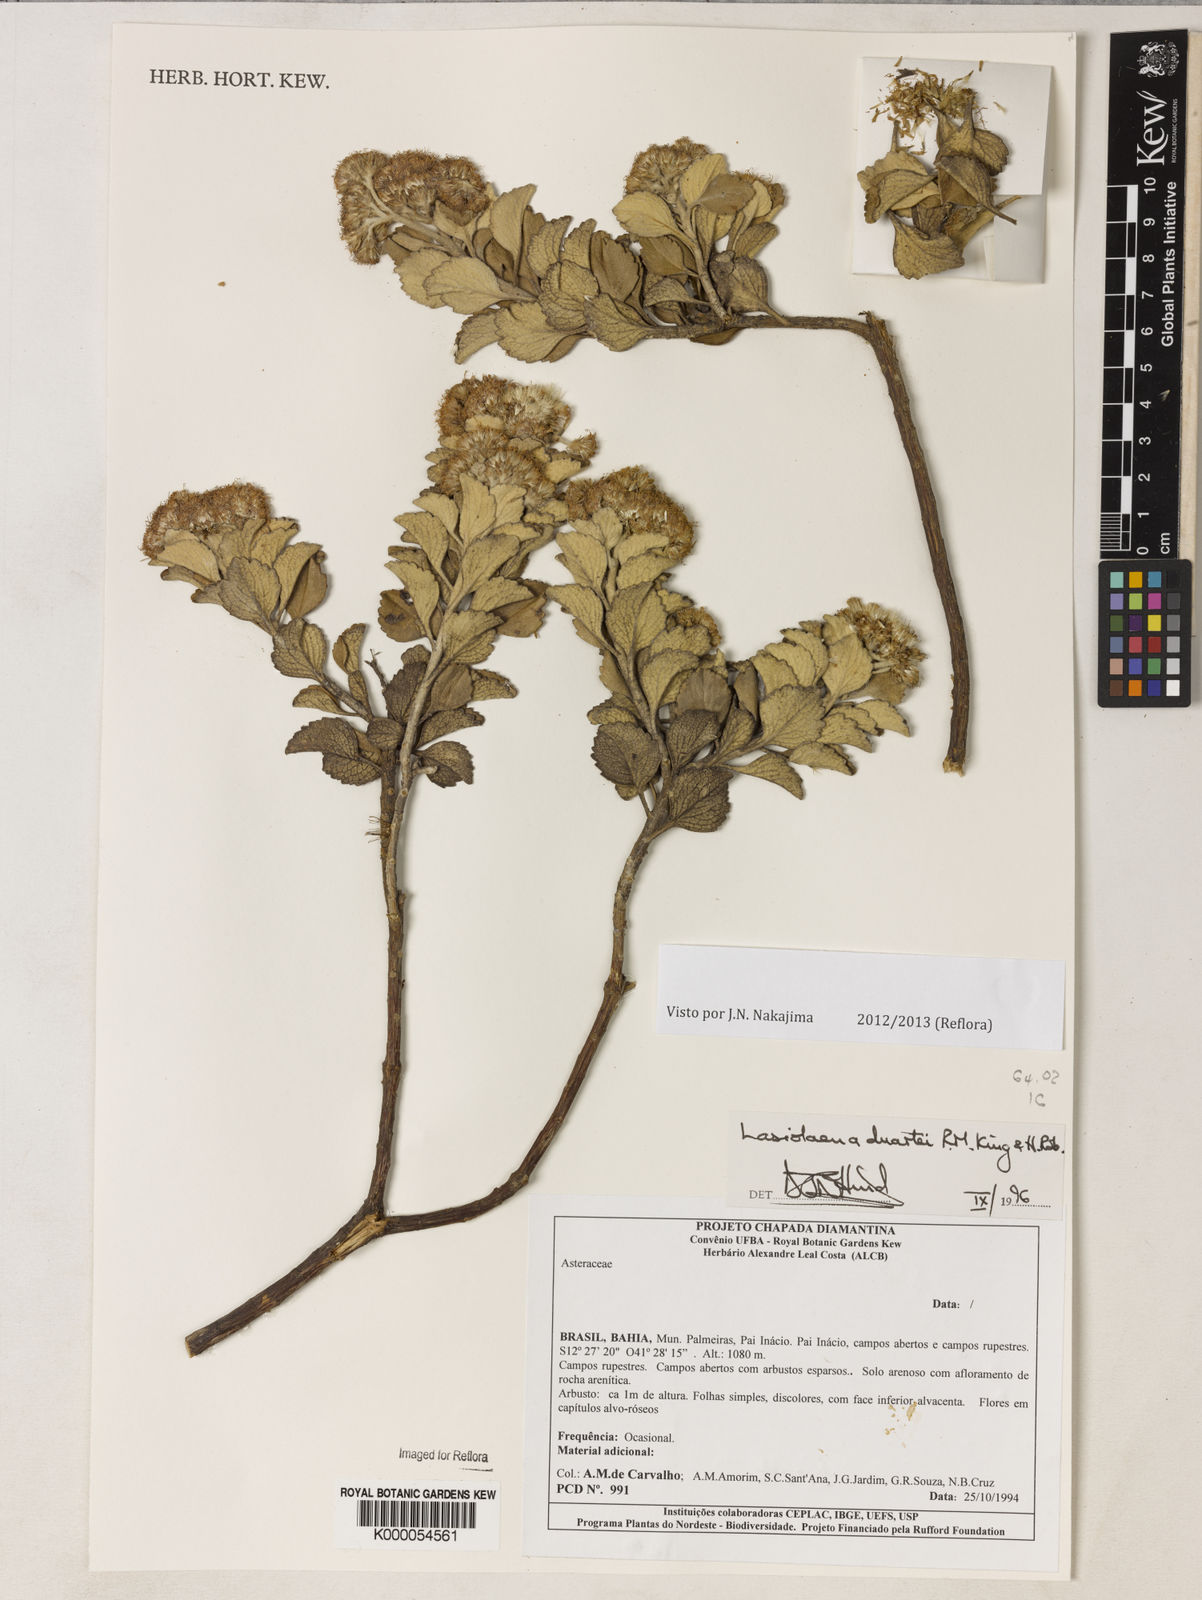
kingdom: Plantae
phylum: Tracheophyta
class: Magnoliopsida
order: Asterales
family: Asteraceae
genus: Lasiolaena
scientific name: Lasiolaena duartei
